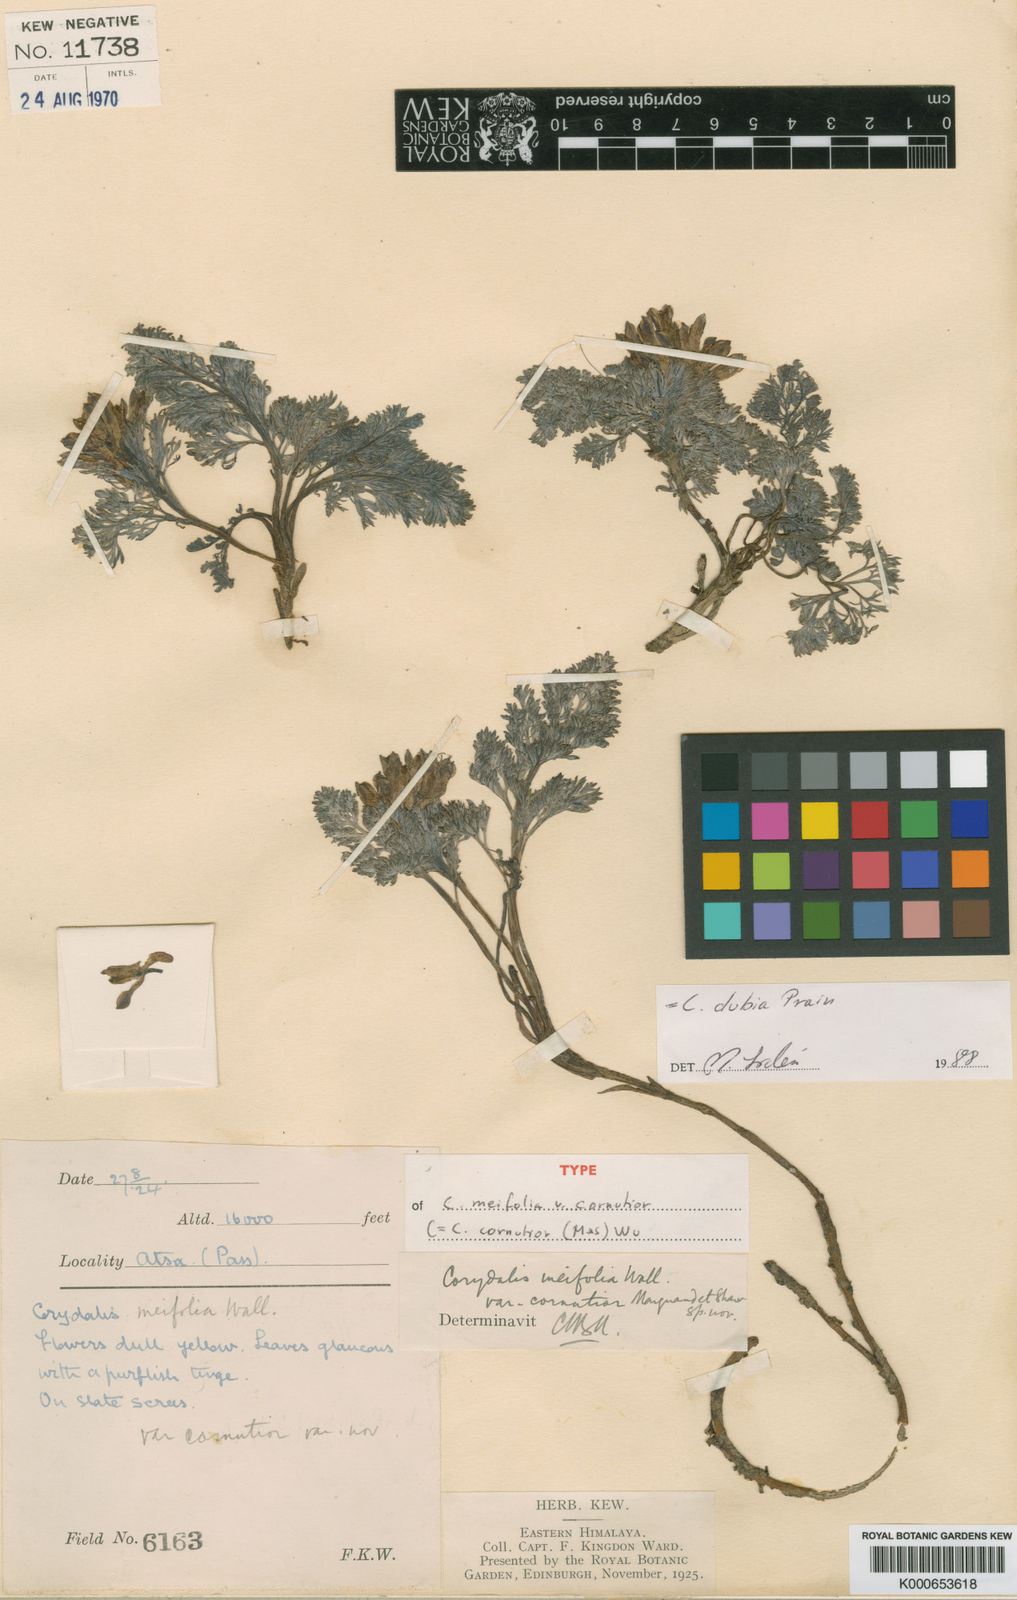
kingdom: Plantae
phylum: Tracheophyta
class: Magnoliopsida
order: Ranunculales
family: Papaveraceae
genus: Corydalis
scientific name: Corydalis dubia
